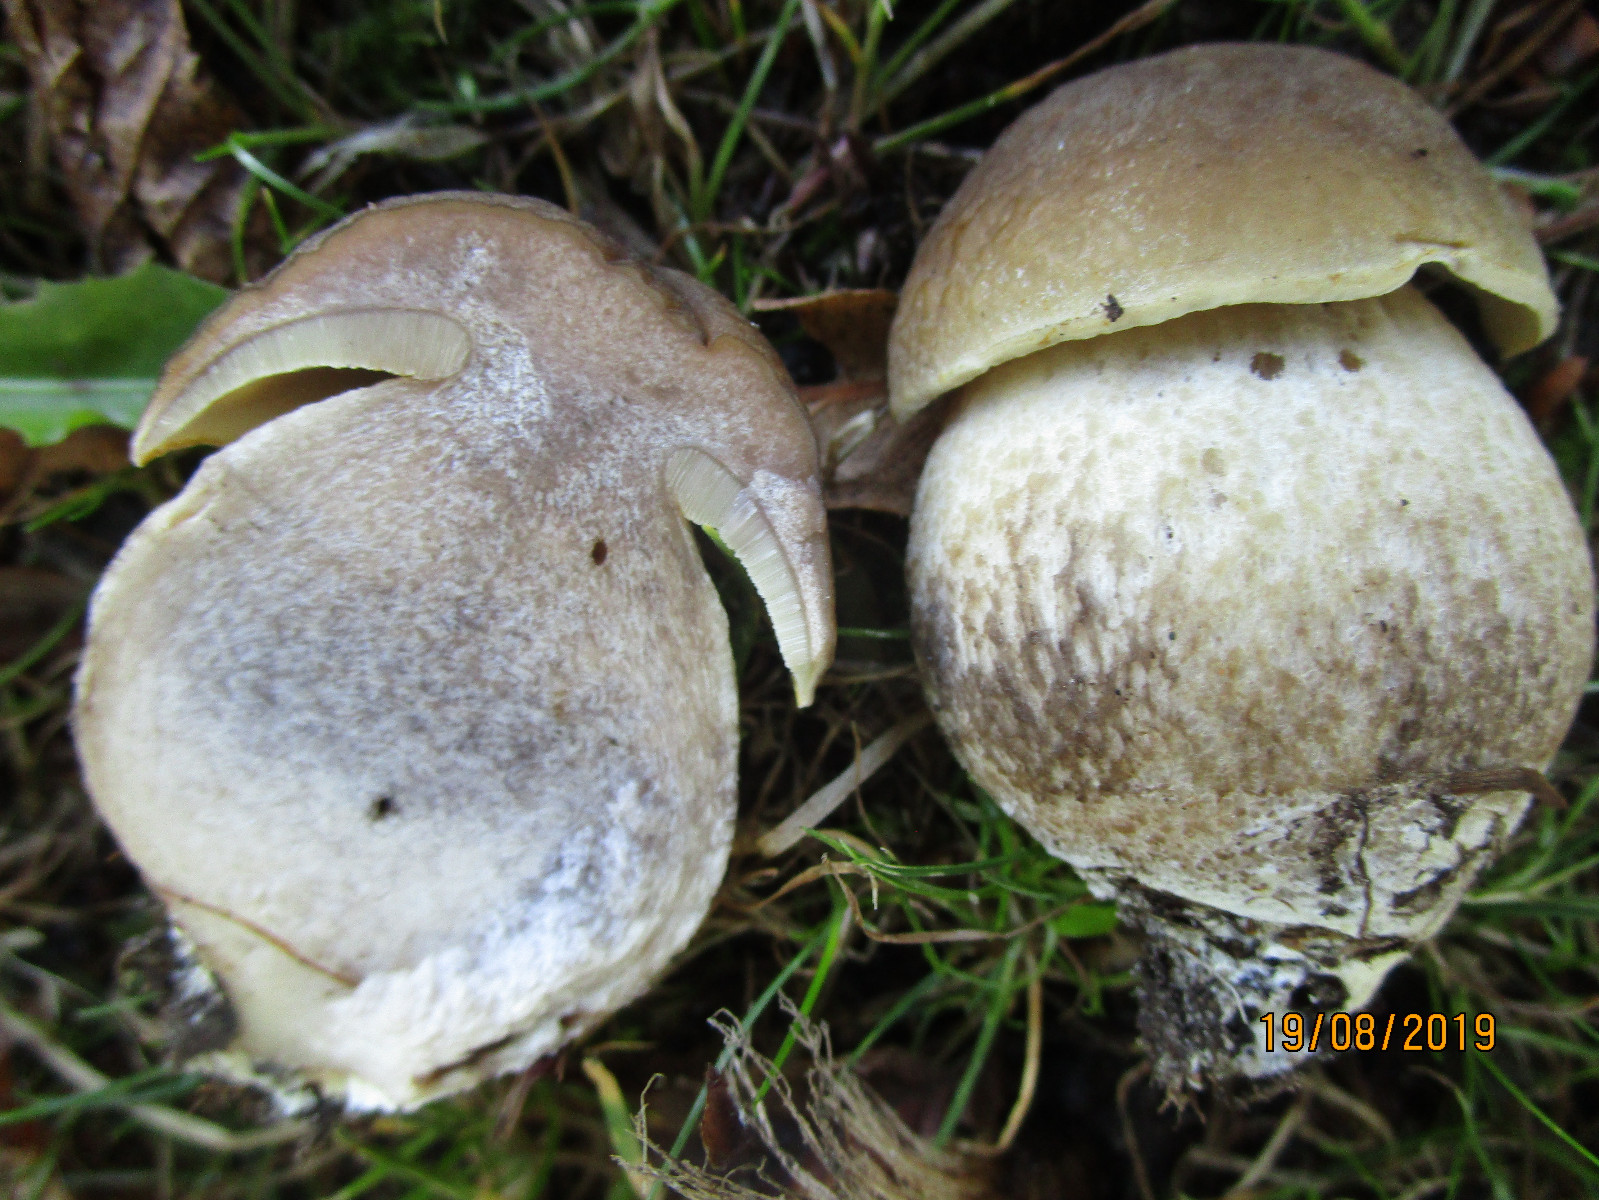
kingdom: Fungi
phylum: Basidiomycota
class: Agaricomycetes
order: Boletales
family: Boletaceae
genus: Leccinellum
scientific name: Leccinellum pseudoscabrum
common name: avnbøg-skælrørhat
